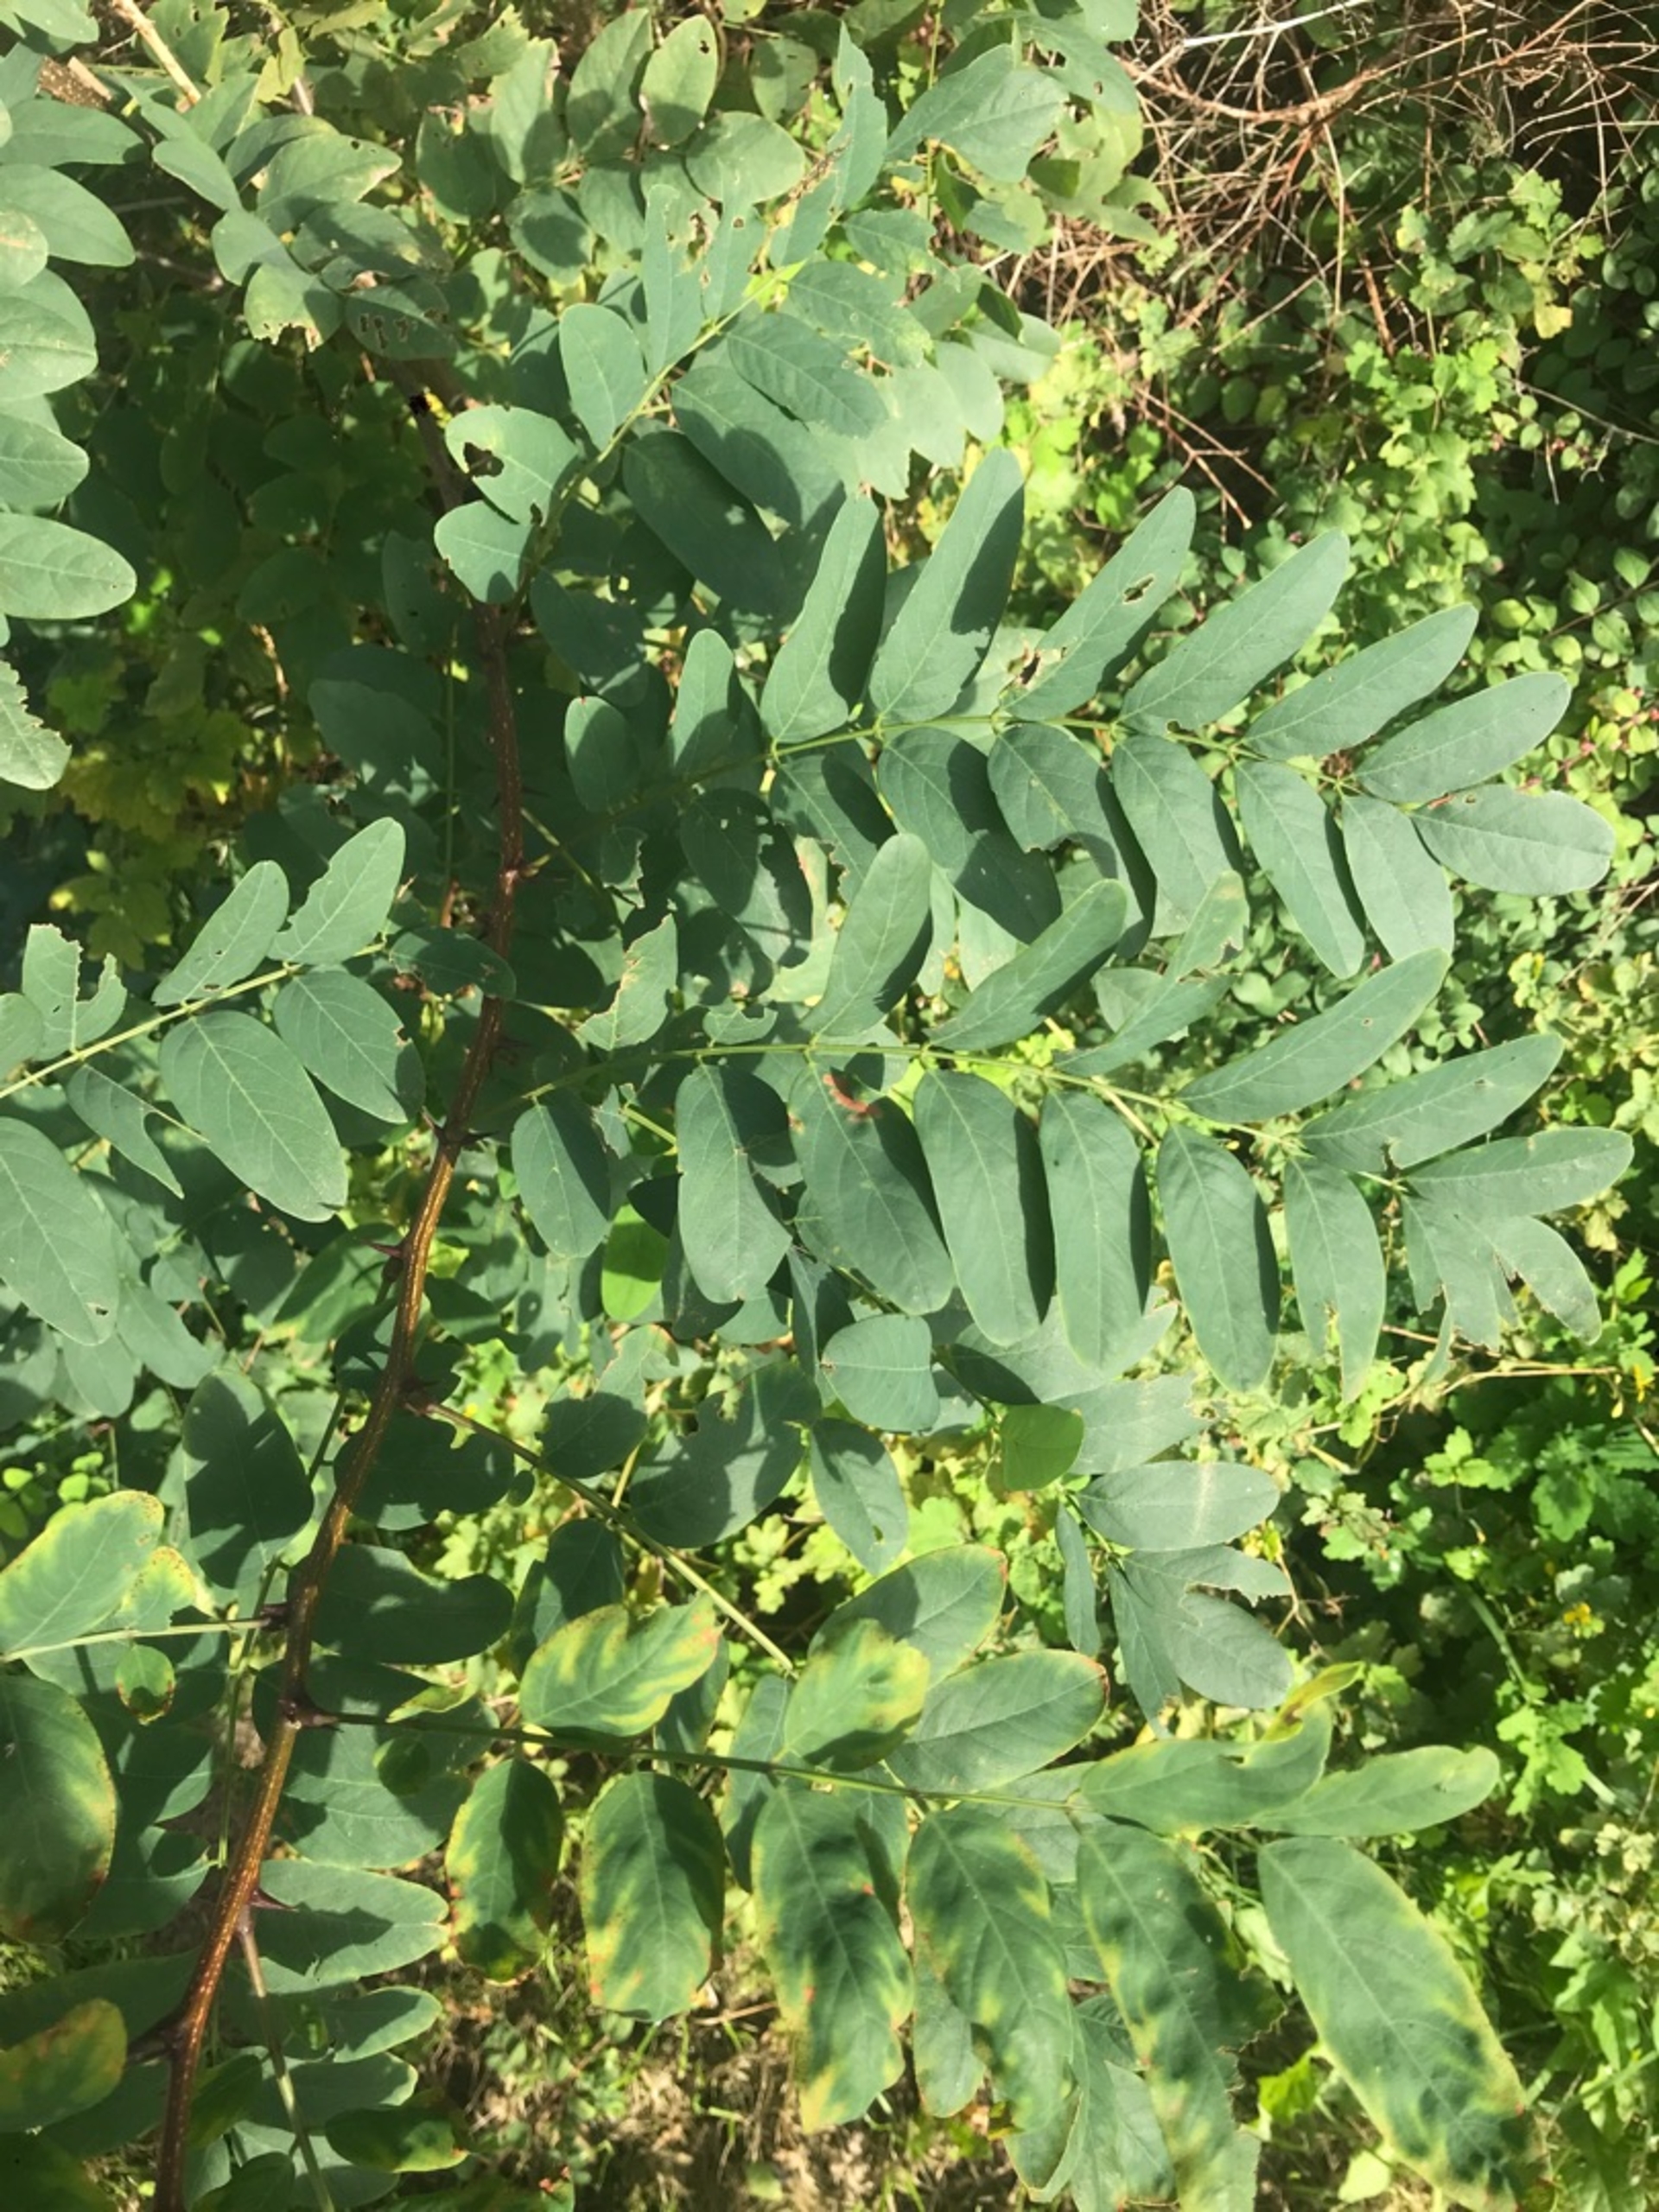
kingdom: Plantae
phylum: Tracheophyta
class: Magnoliopsida
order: Fabales
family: Fabaceae
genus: Robinia
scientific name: Robinia pseudoacacia
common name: Robinie
